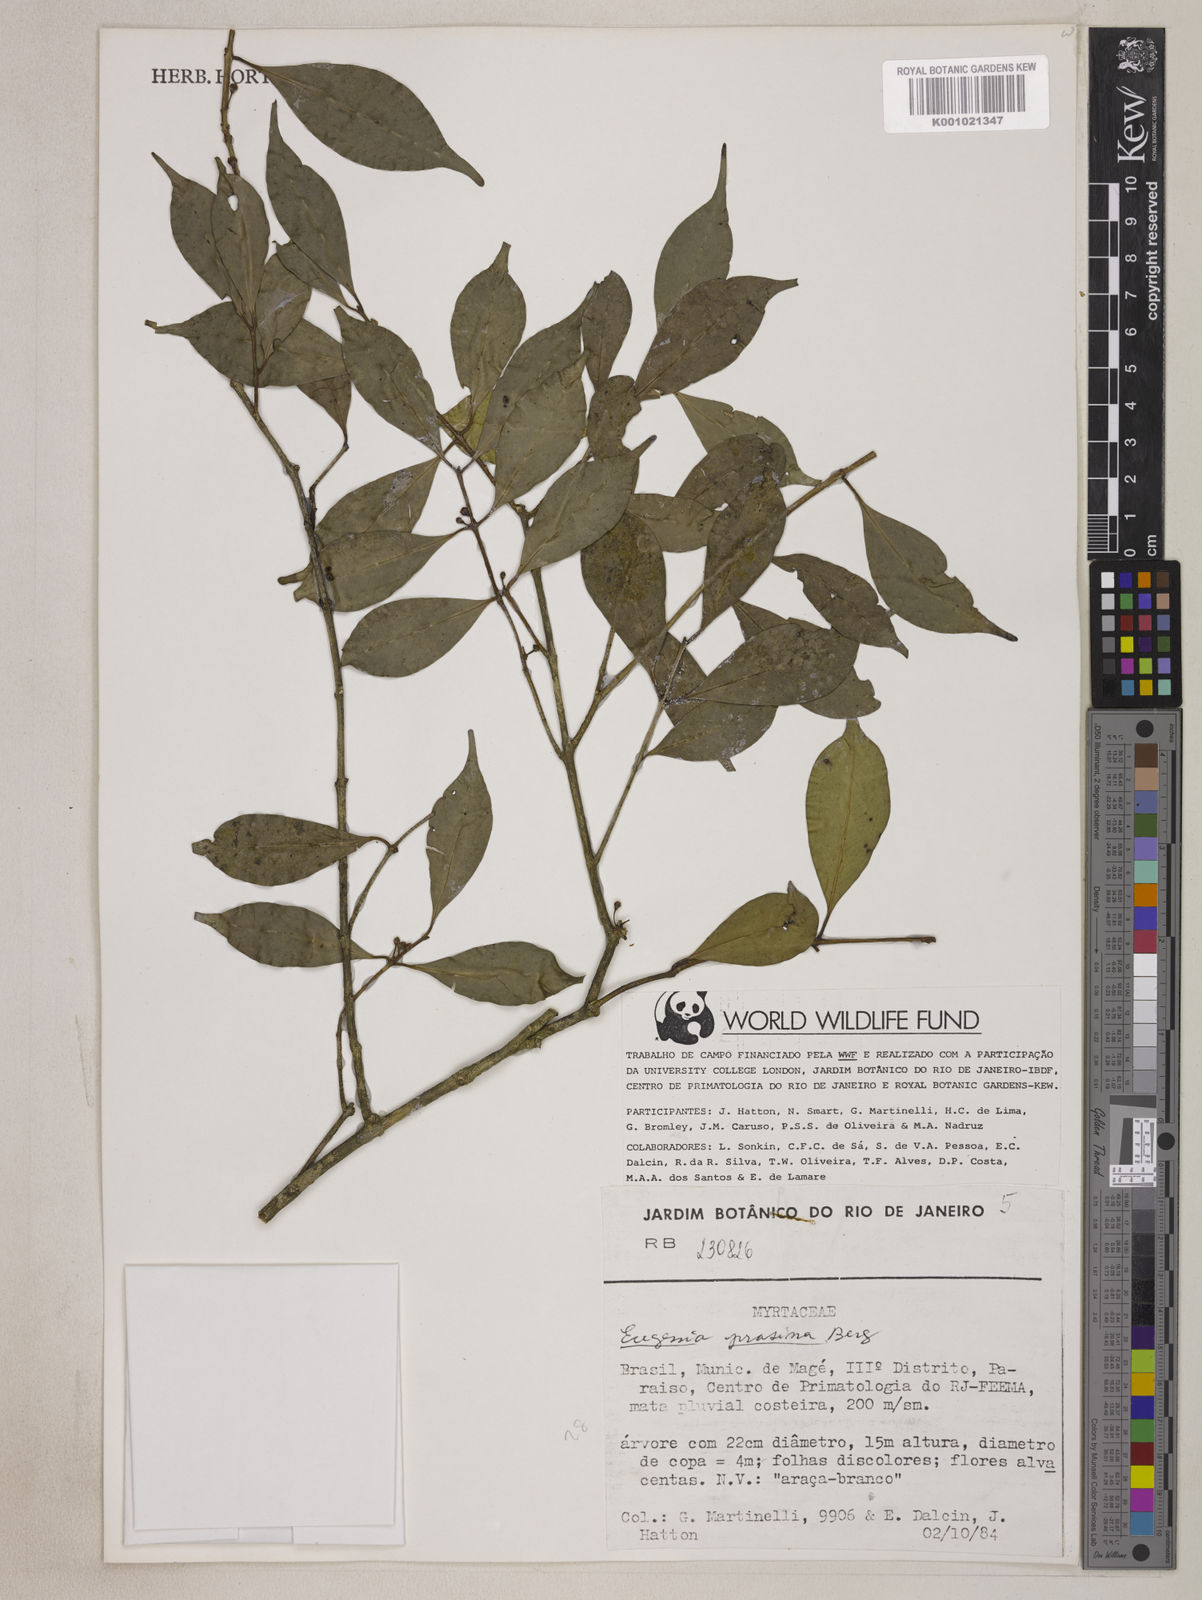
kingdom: Plantae
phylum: Tracheophyta
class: Magnoliopsida
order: Myrtales
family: Myrtaceae
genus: Eugenia
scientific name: Eugenia prasina
